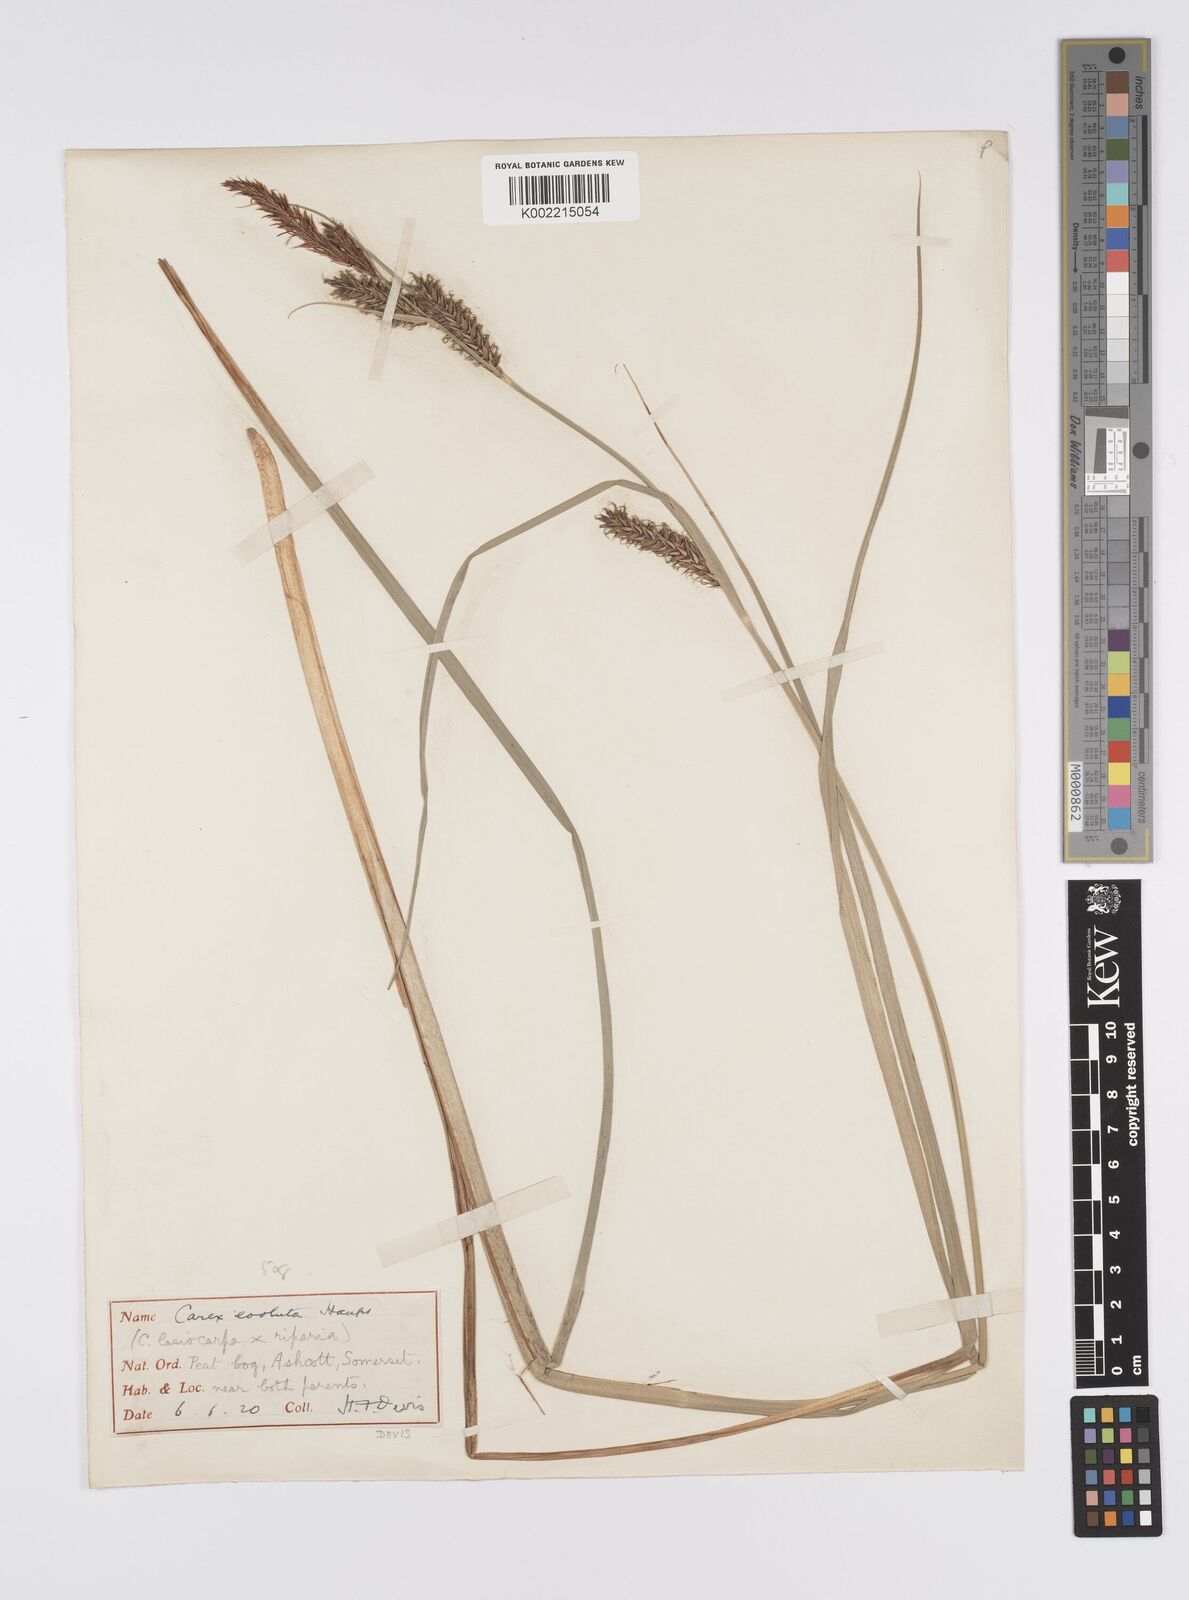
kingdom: Plantae
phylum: Tracheophyta
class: Liliopsida
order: Poales
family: Cyperaceae
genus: Carex
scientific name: Carex evoluta
